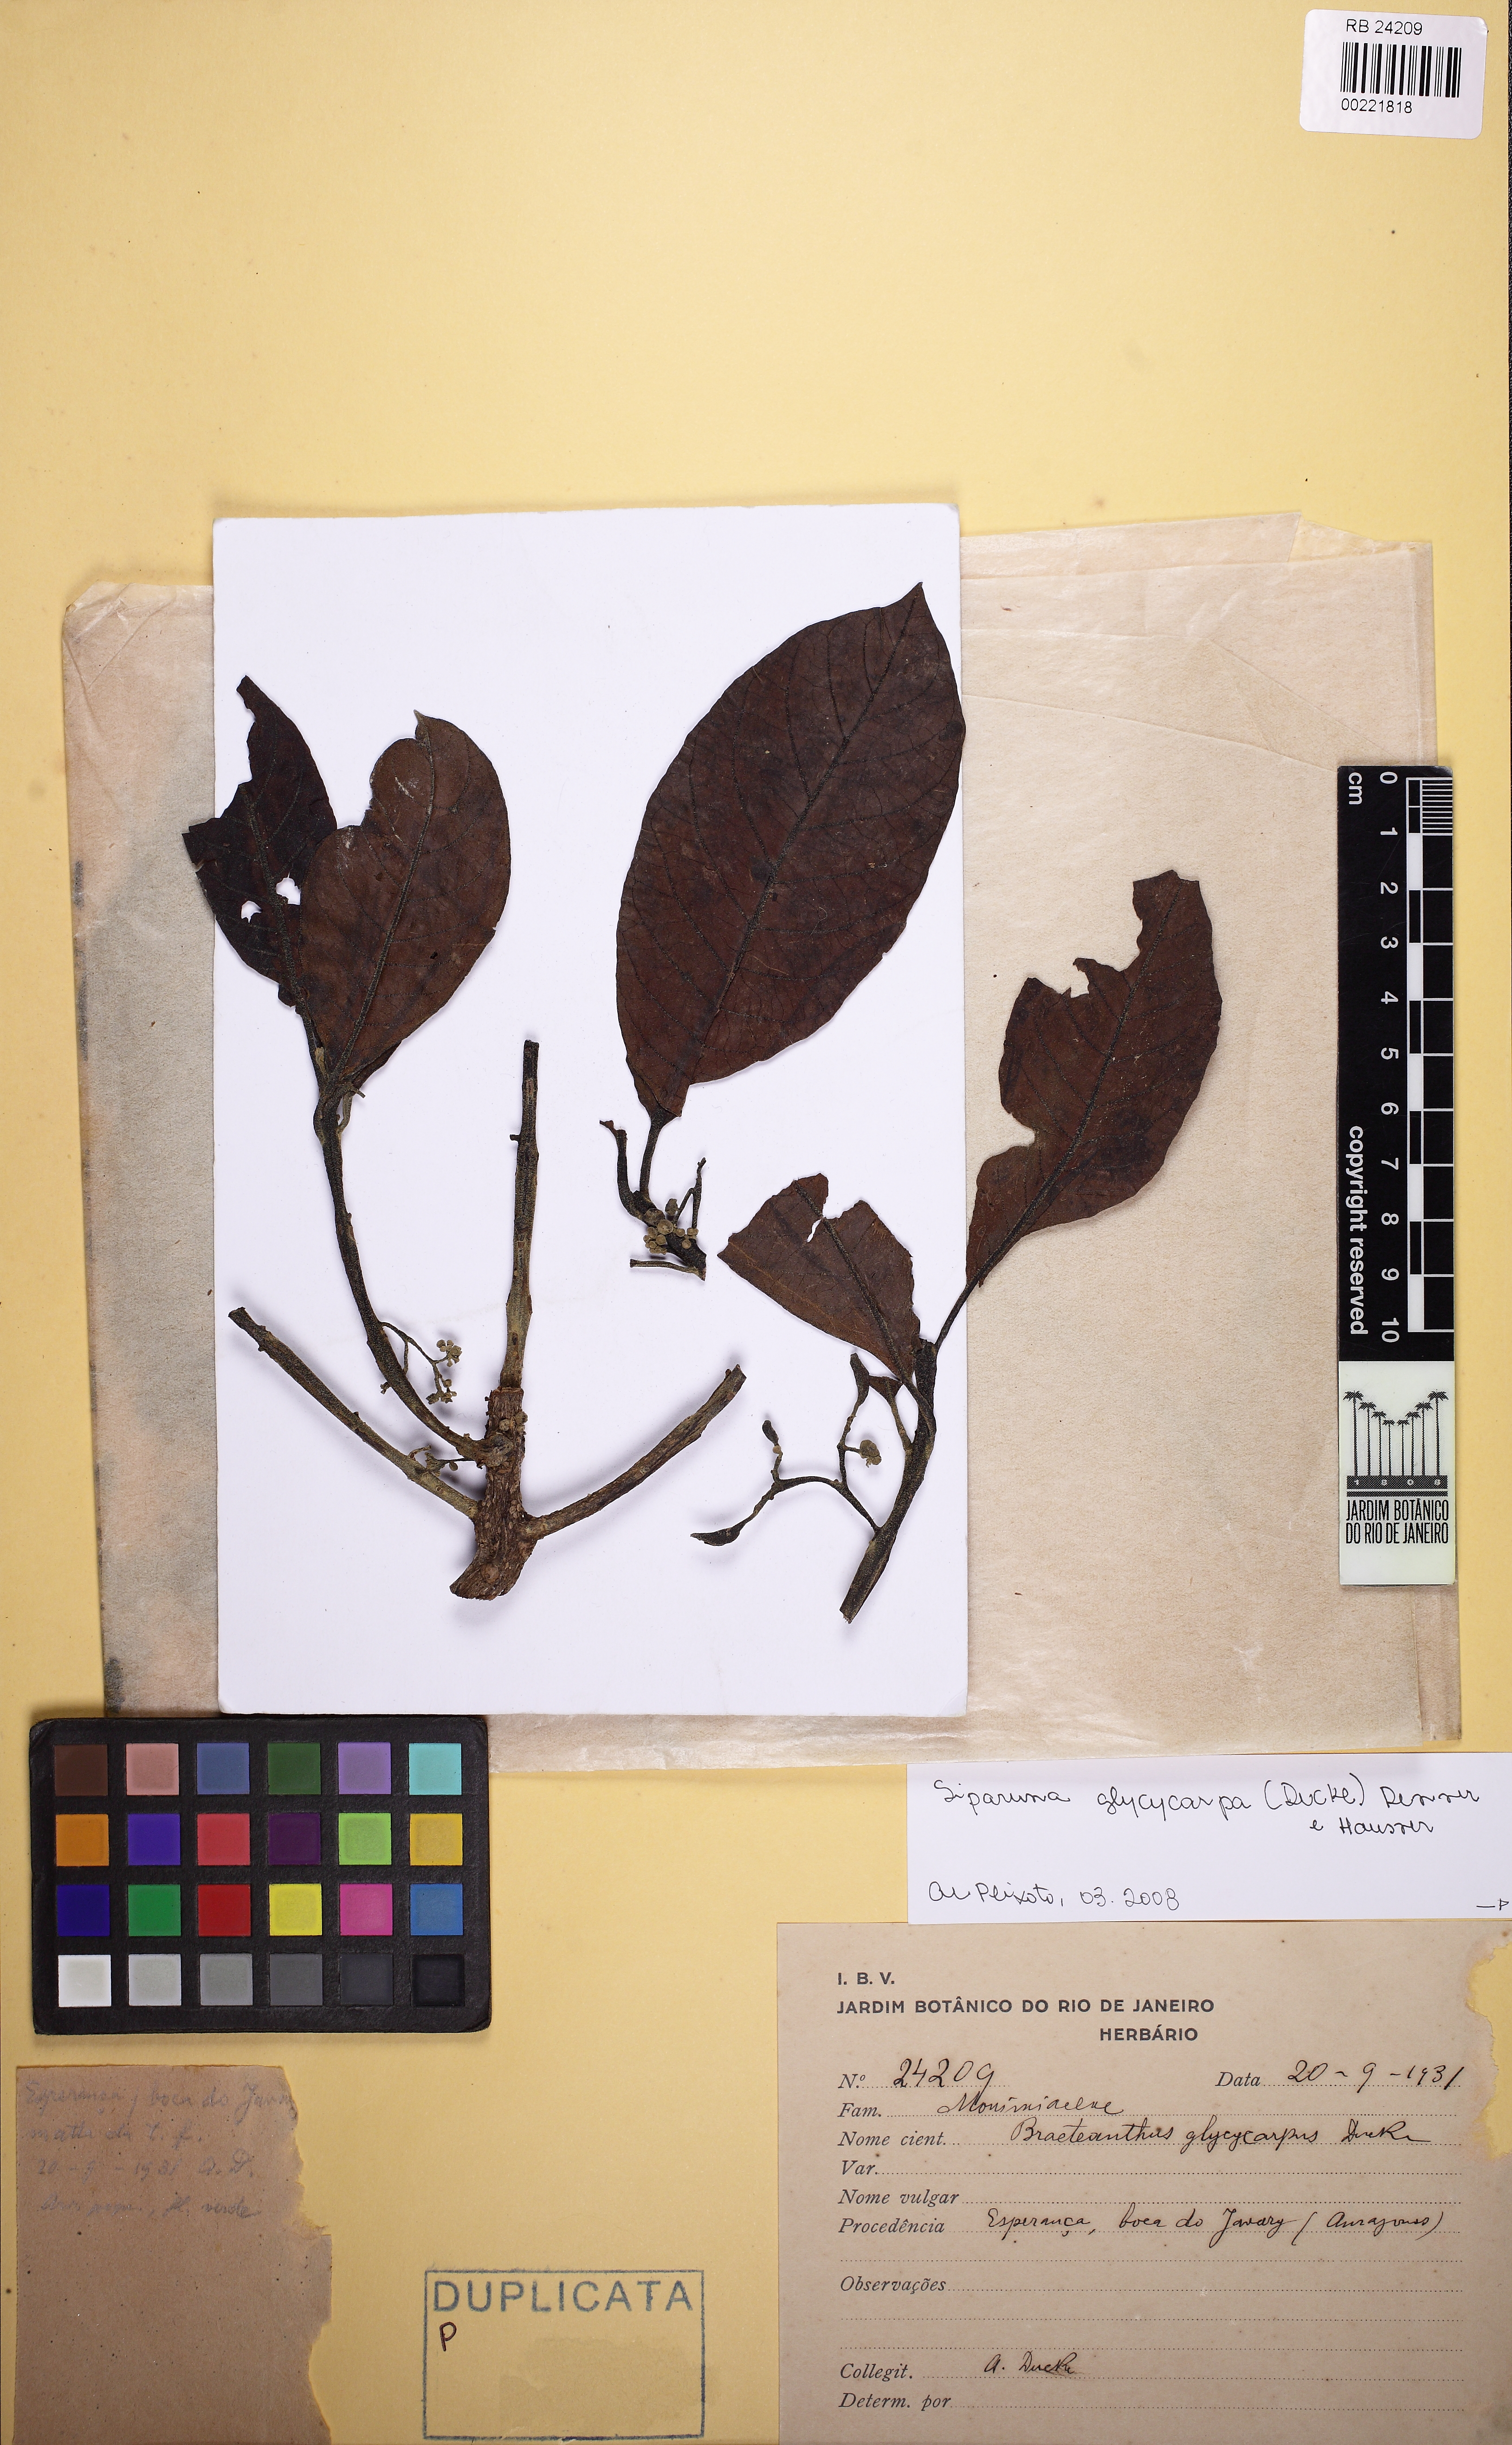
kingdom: Plantae
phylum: Tracheophyta
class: Magnoliopsida
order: Laurales
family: Siparunaceae
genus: Siparuna
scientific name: Siparuna glycycarpa
